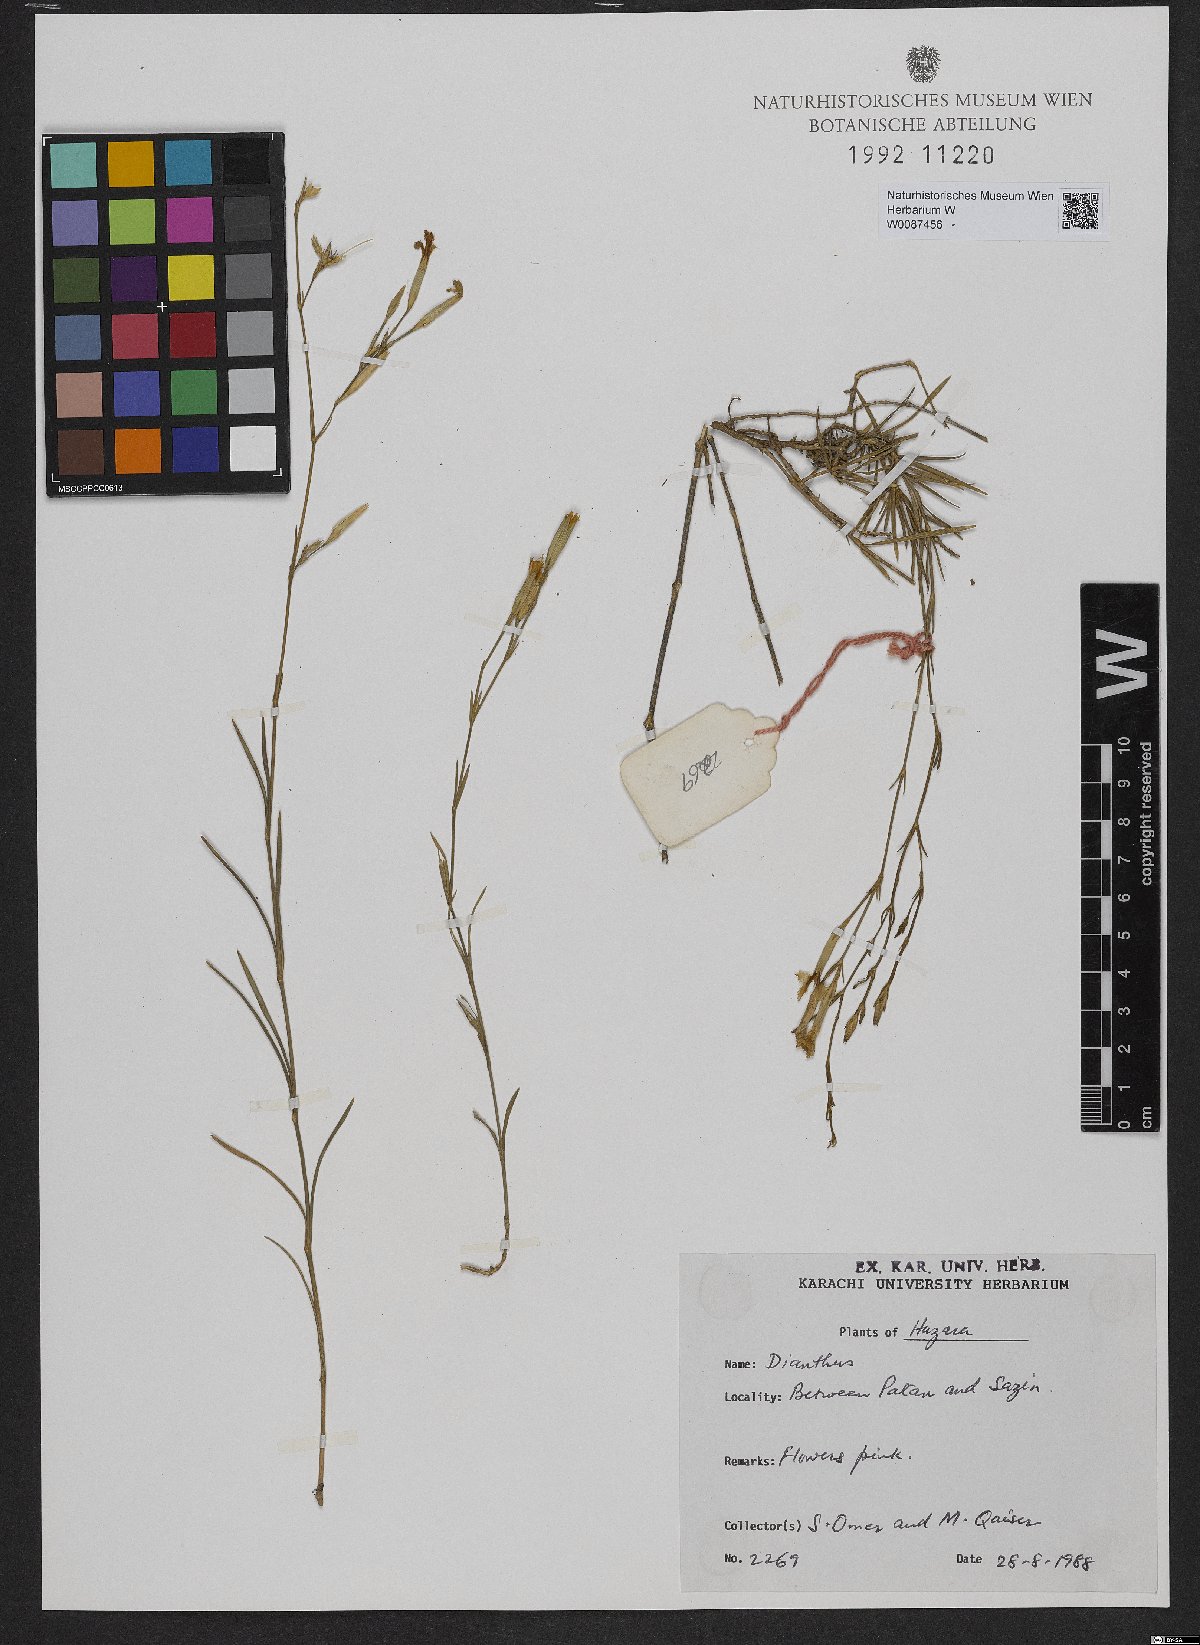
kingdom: Plantae
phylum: Tracheophyta
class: Magnoliopsida
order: Caryophyllales
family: Caryophyllaceae
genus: Dianthus
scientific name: Dianthus
